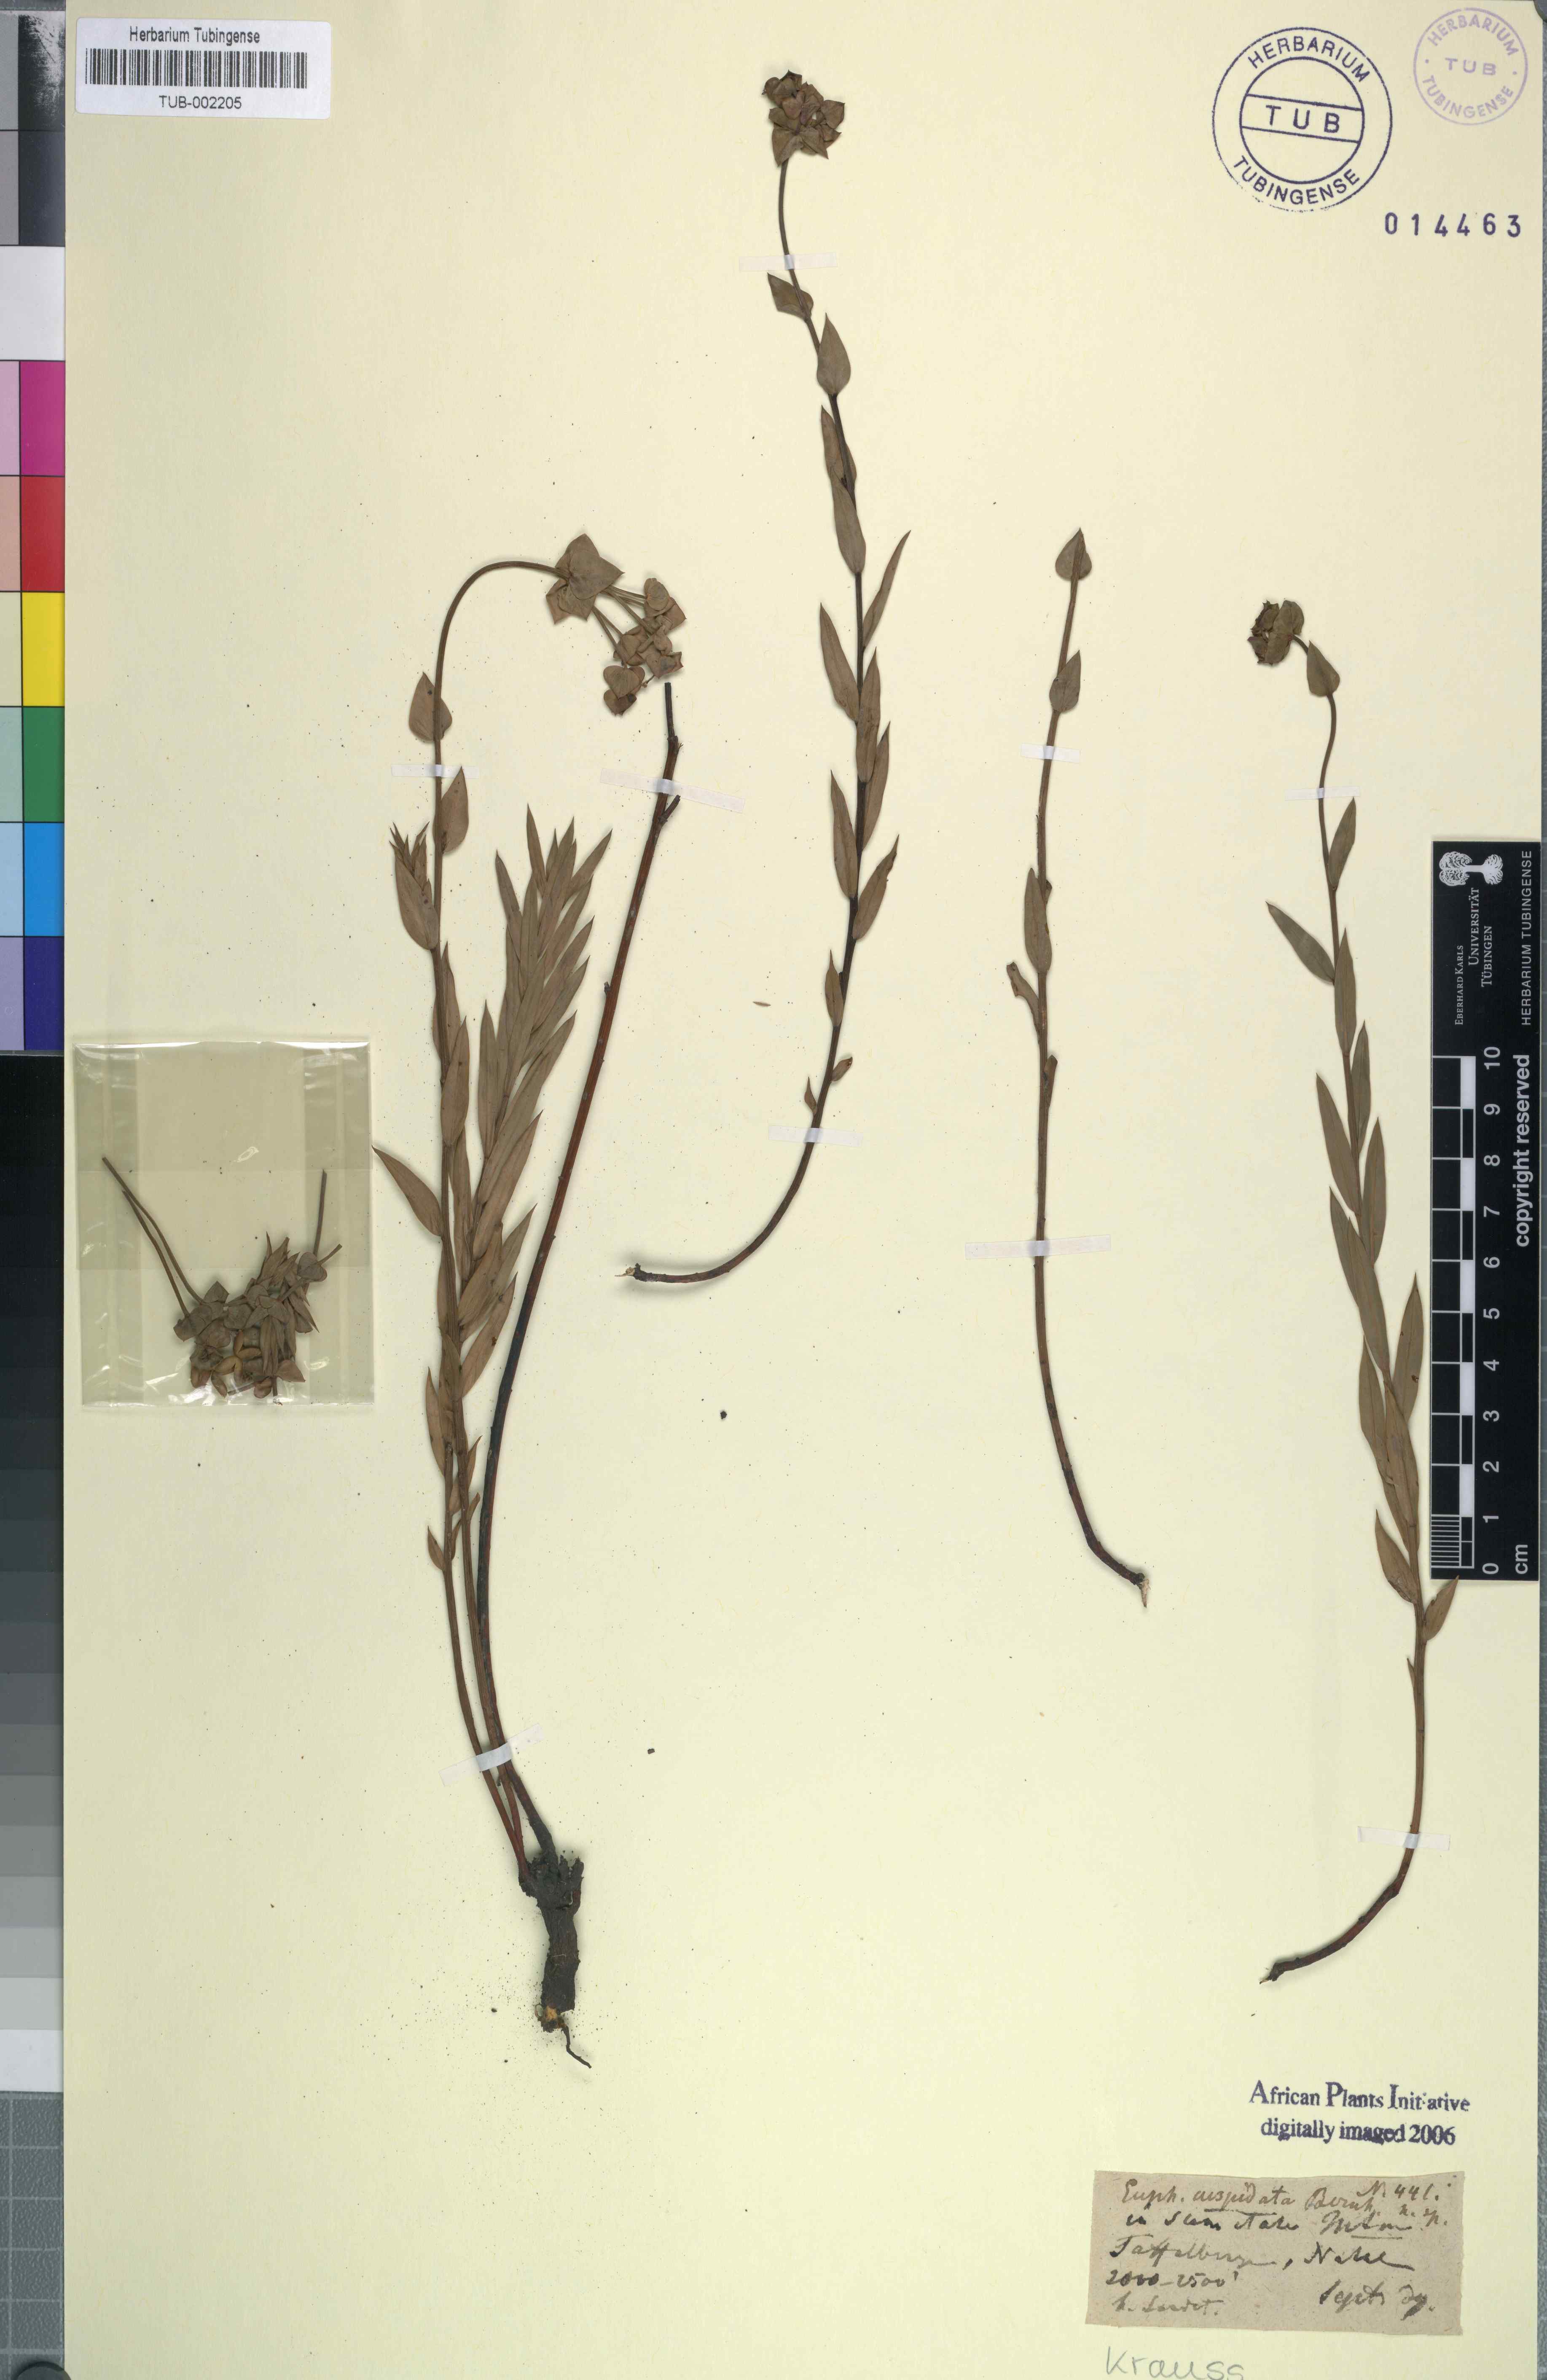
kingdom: Plantae
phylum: Tracheophyta
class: Magnoliopsida
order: Malpighiales
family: Euphorbiaceae
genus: Euphorbia
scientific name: Euphorbia striata
